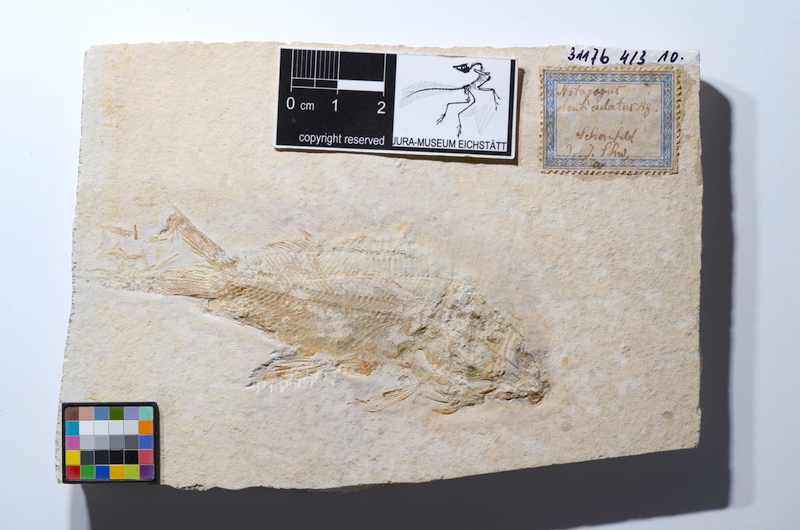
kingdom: Animalia
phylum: Chordata
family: Macrosemiidae
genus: Propterus
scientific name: Propterus
